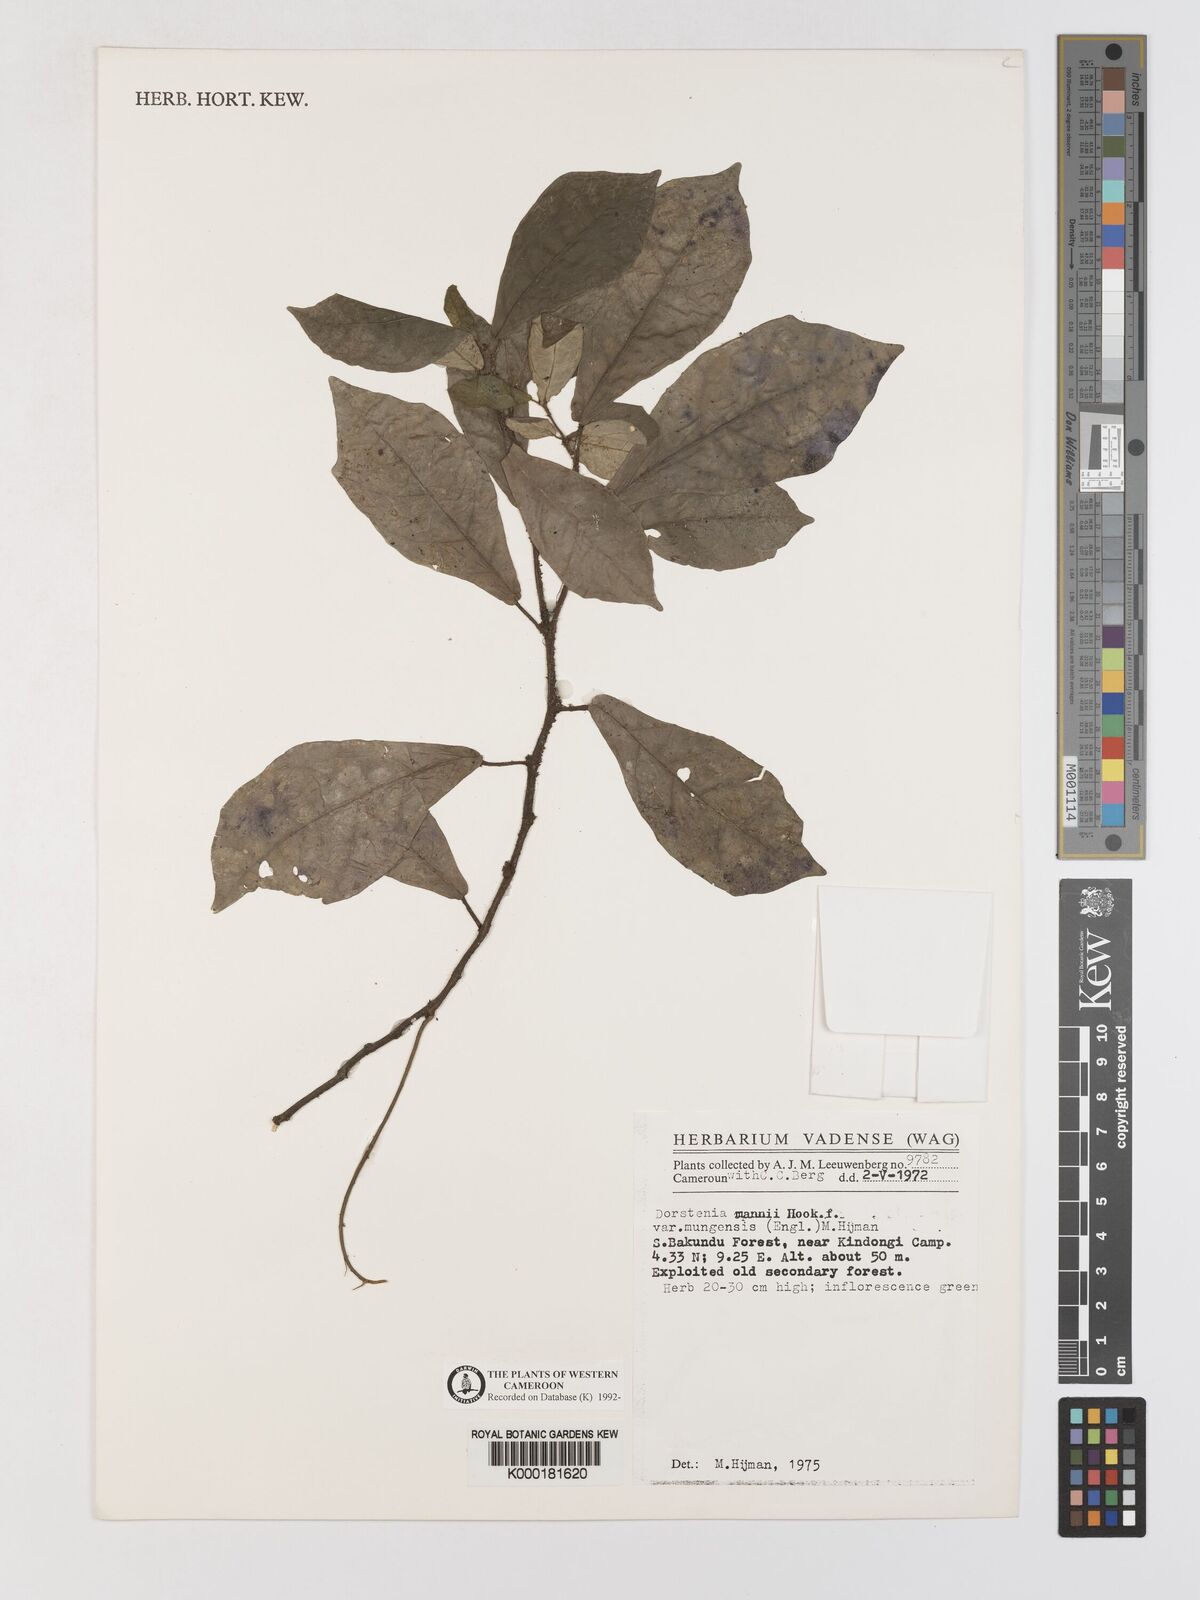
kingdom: Plantae
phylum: Tracheophyta
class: Magnoliopsida
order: Rosales
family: Moraceae
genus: Dorstenia
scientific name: Dorstenia mannii
